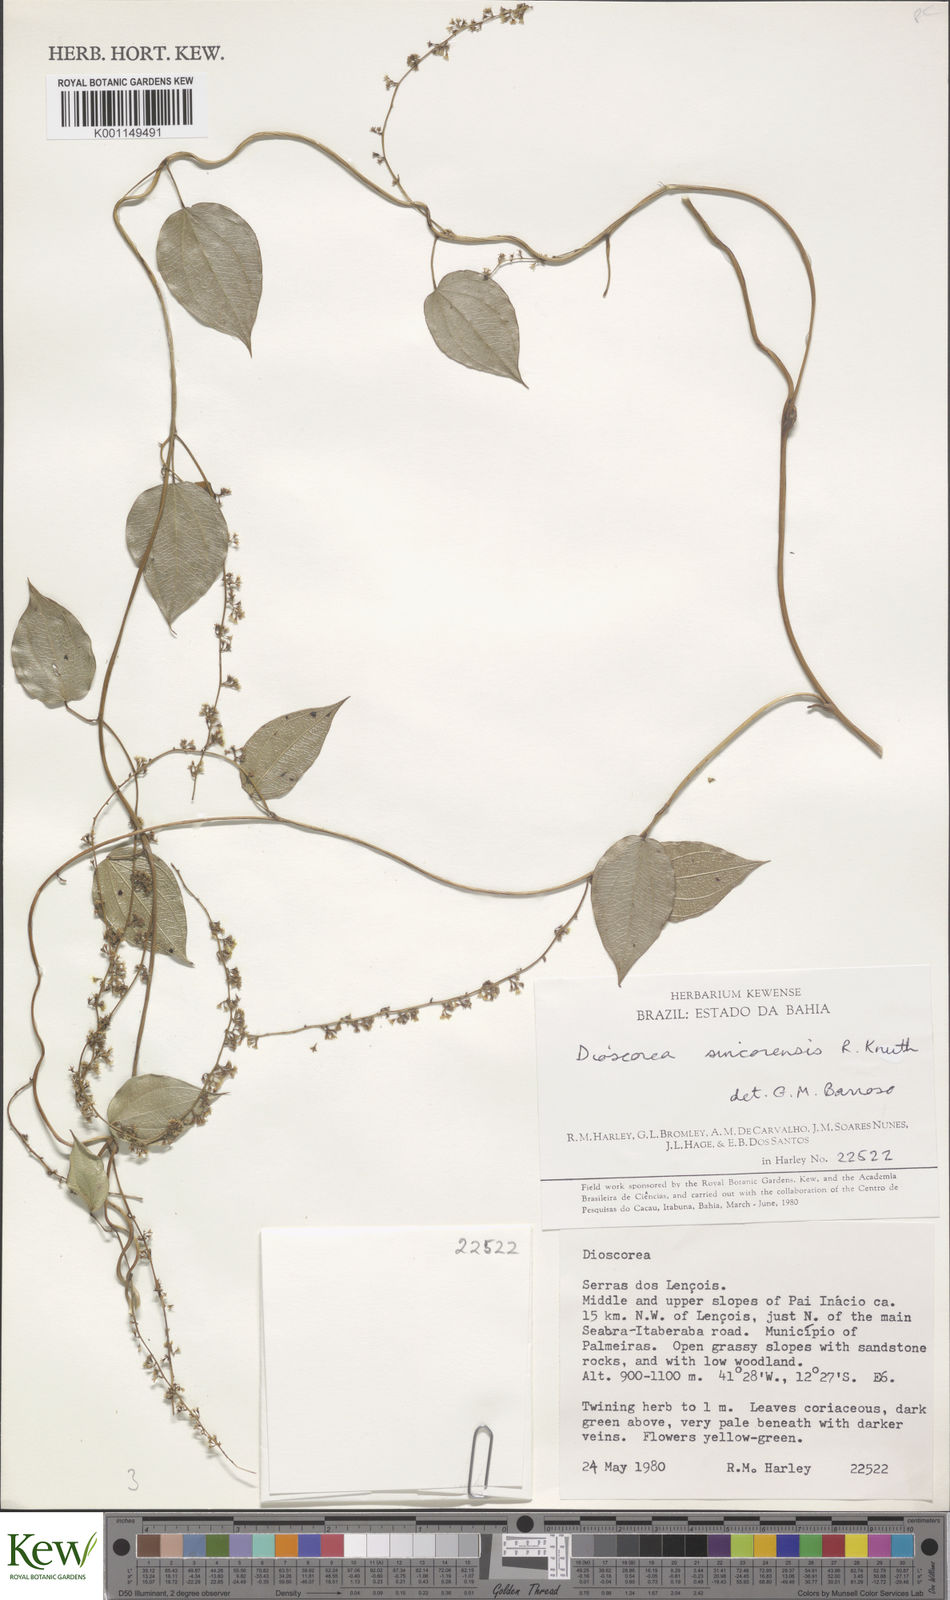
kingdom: Plantae
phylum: Tracheophyta
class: Liliopsida
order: Dioscoreales
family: Dioscoreaceae
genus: Dioscorea
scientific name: Dioscorea sincorensis
